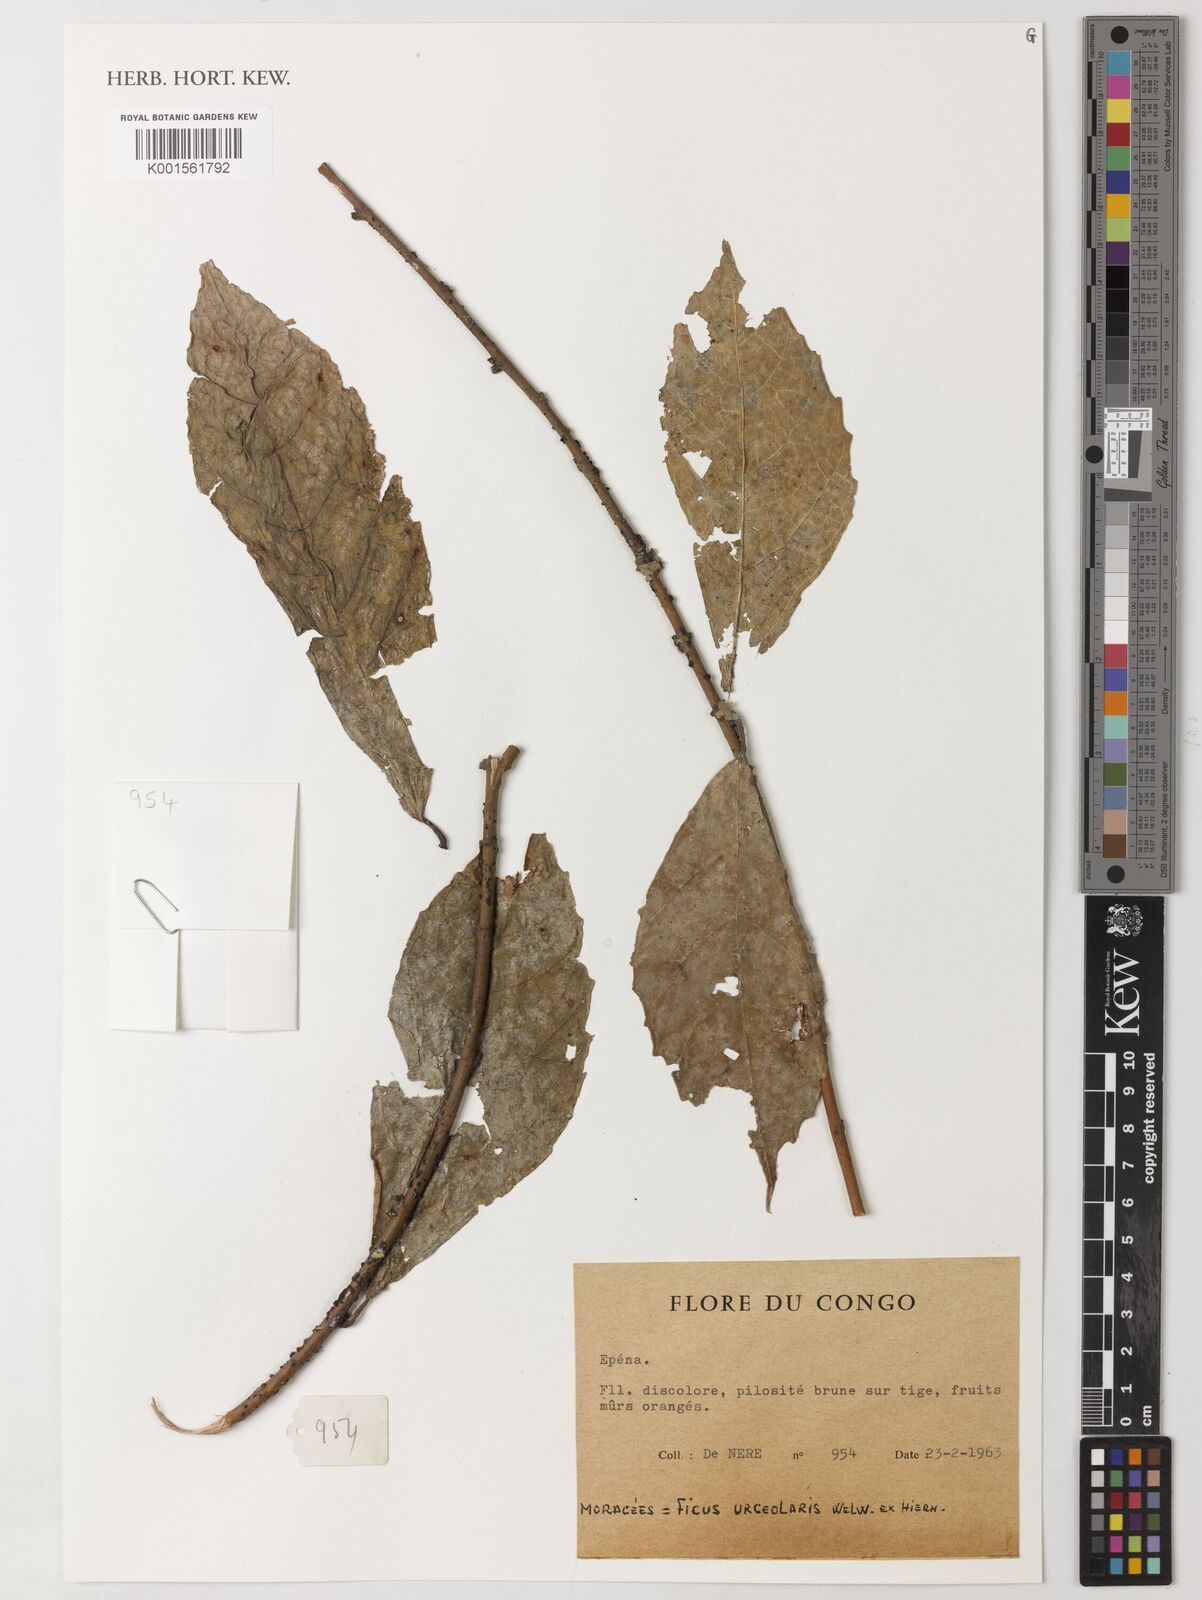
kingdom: Plantae
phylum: Tracheophyta
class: Magnoliopsida
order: Rosales
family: Moraceae
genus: Ficus
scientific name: Ficus asperifolia
